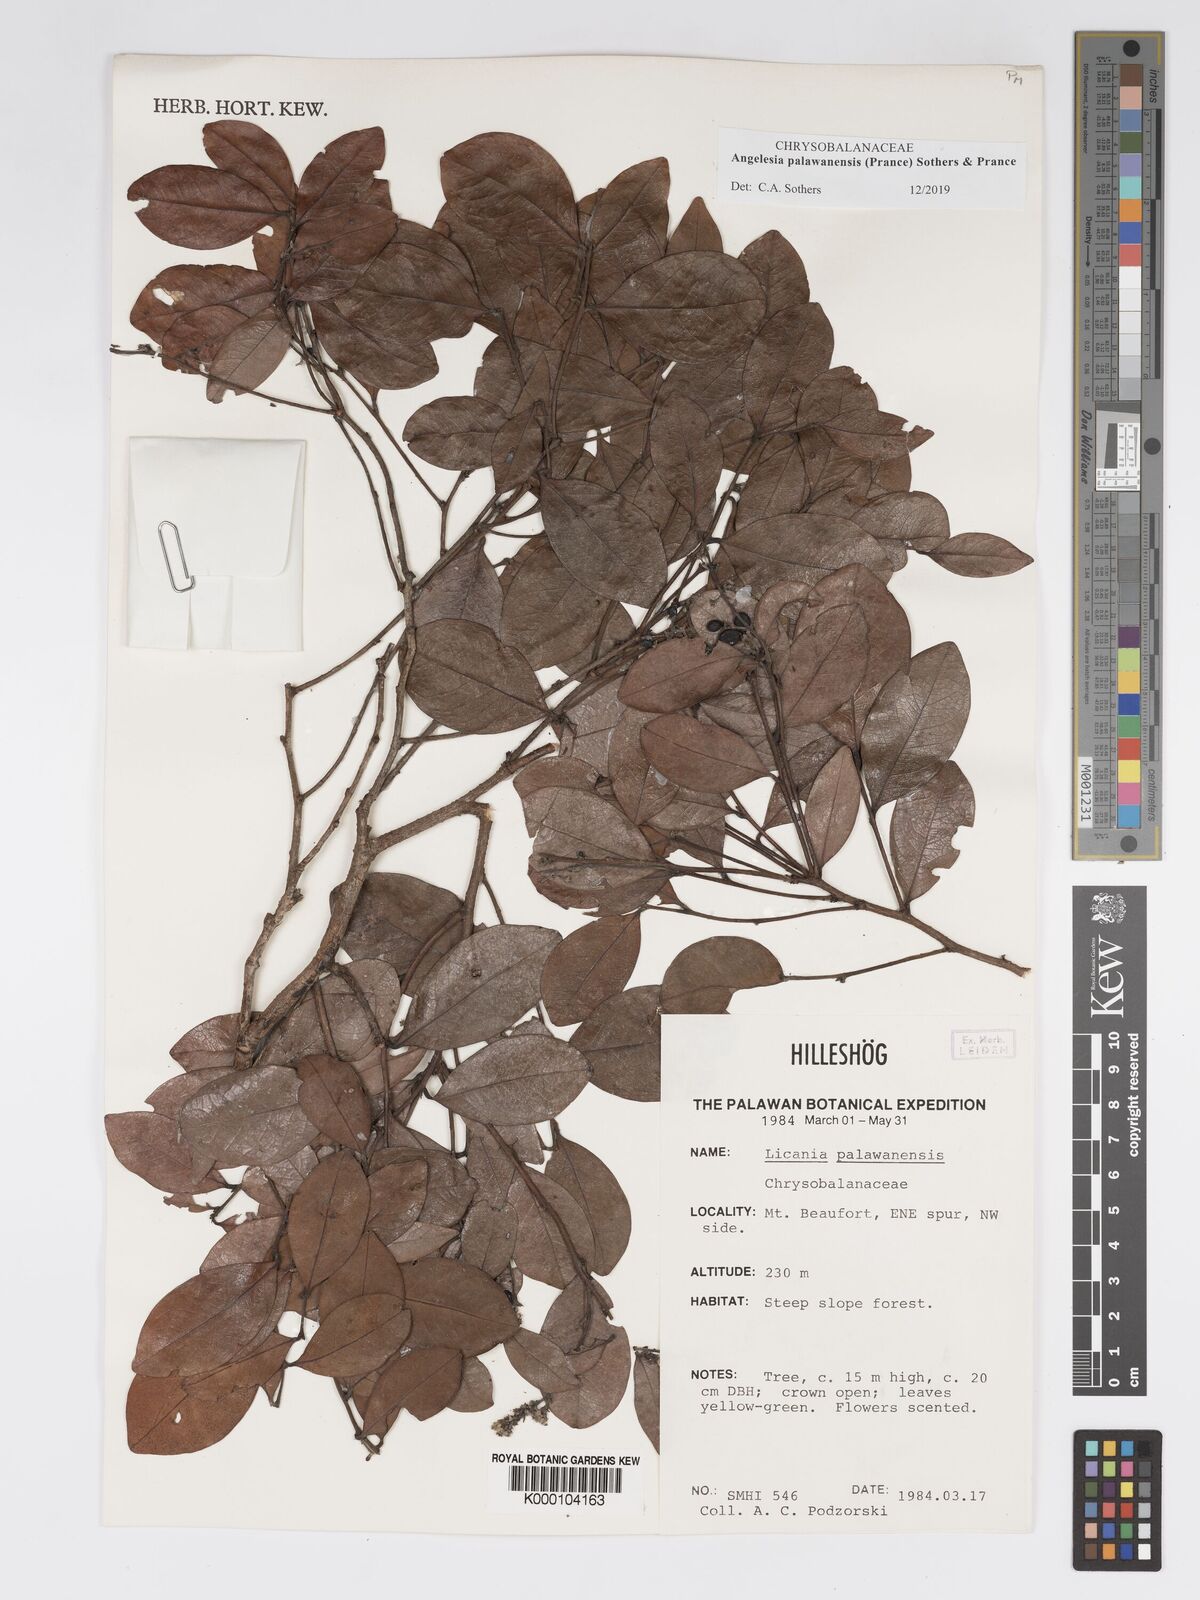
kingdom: Plantae
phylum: Tracheophyta
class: Magnoliopsida
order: Malpighiales
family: Chrysobalanaceae
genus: Angelesia
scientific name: Angelesia palawanensis
